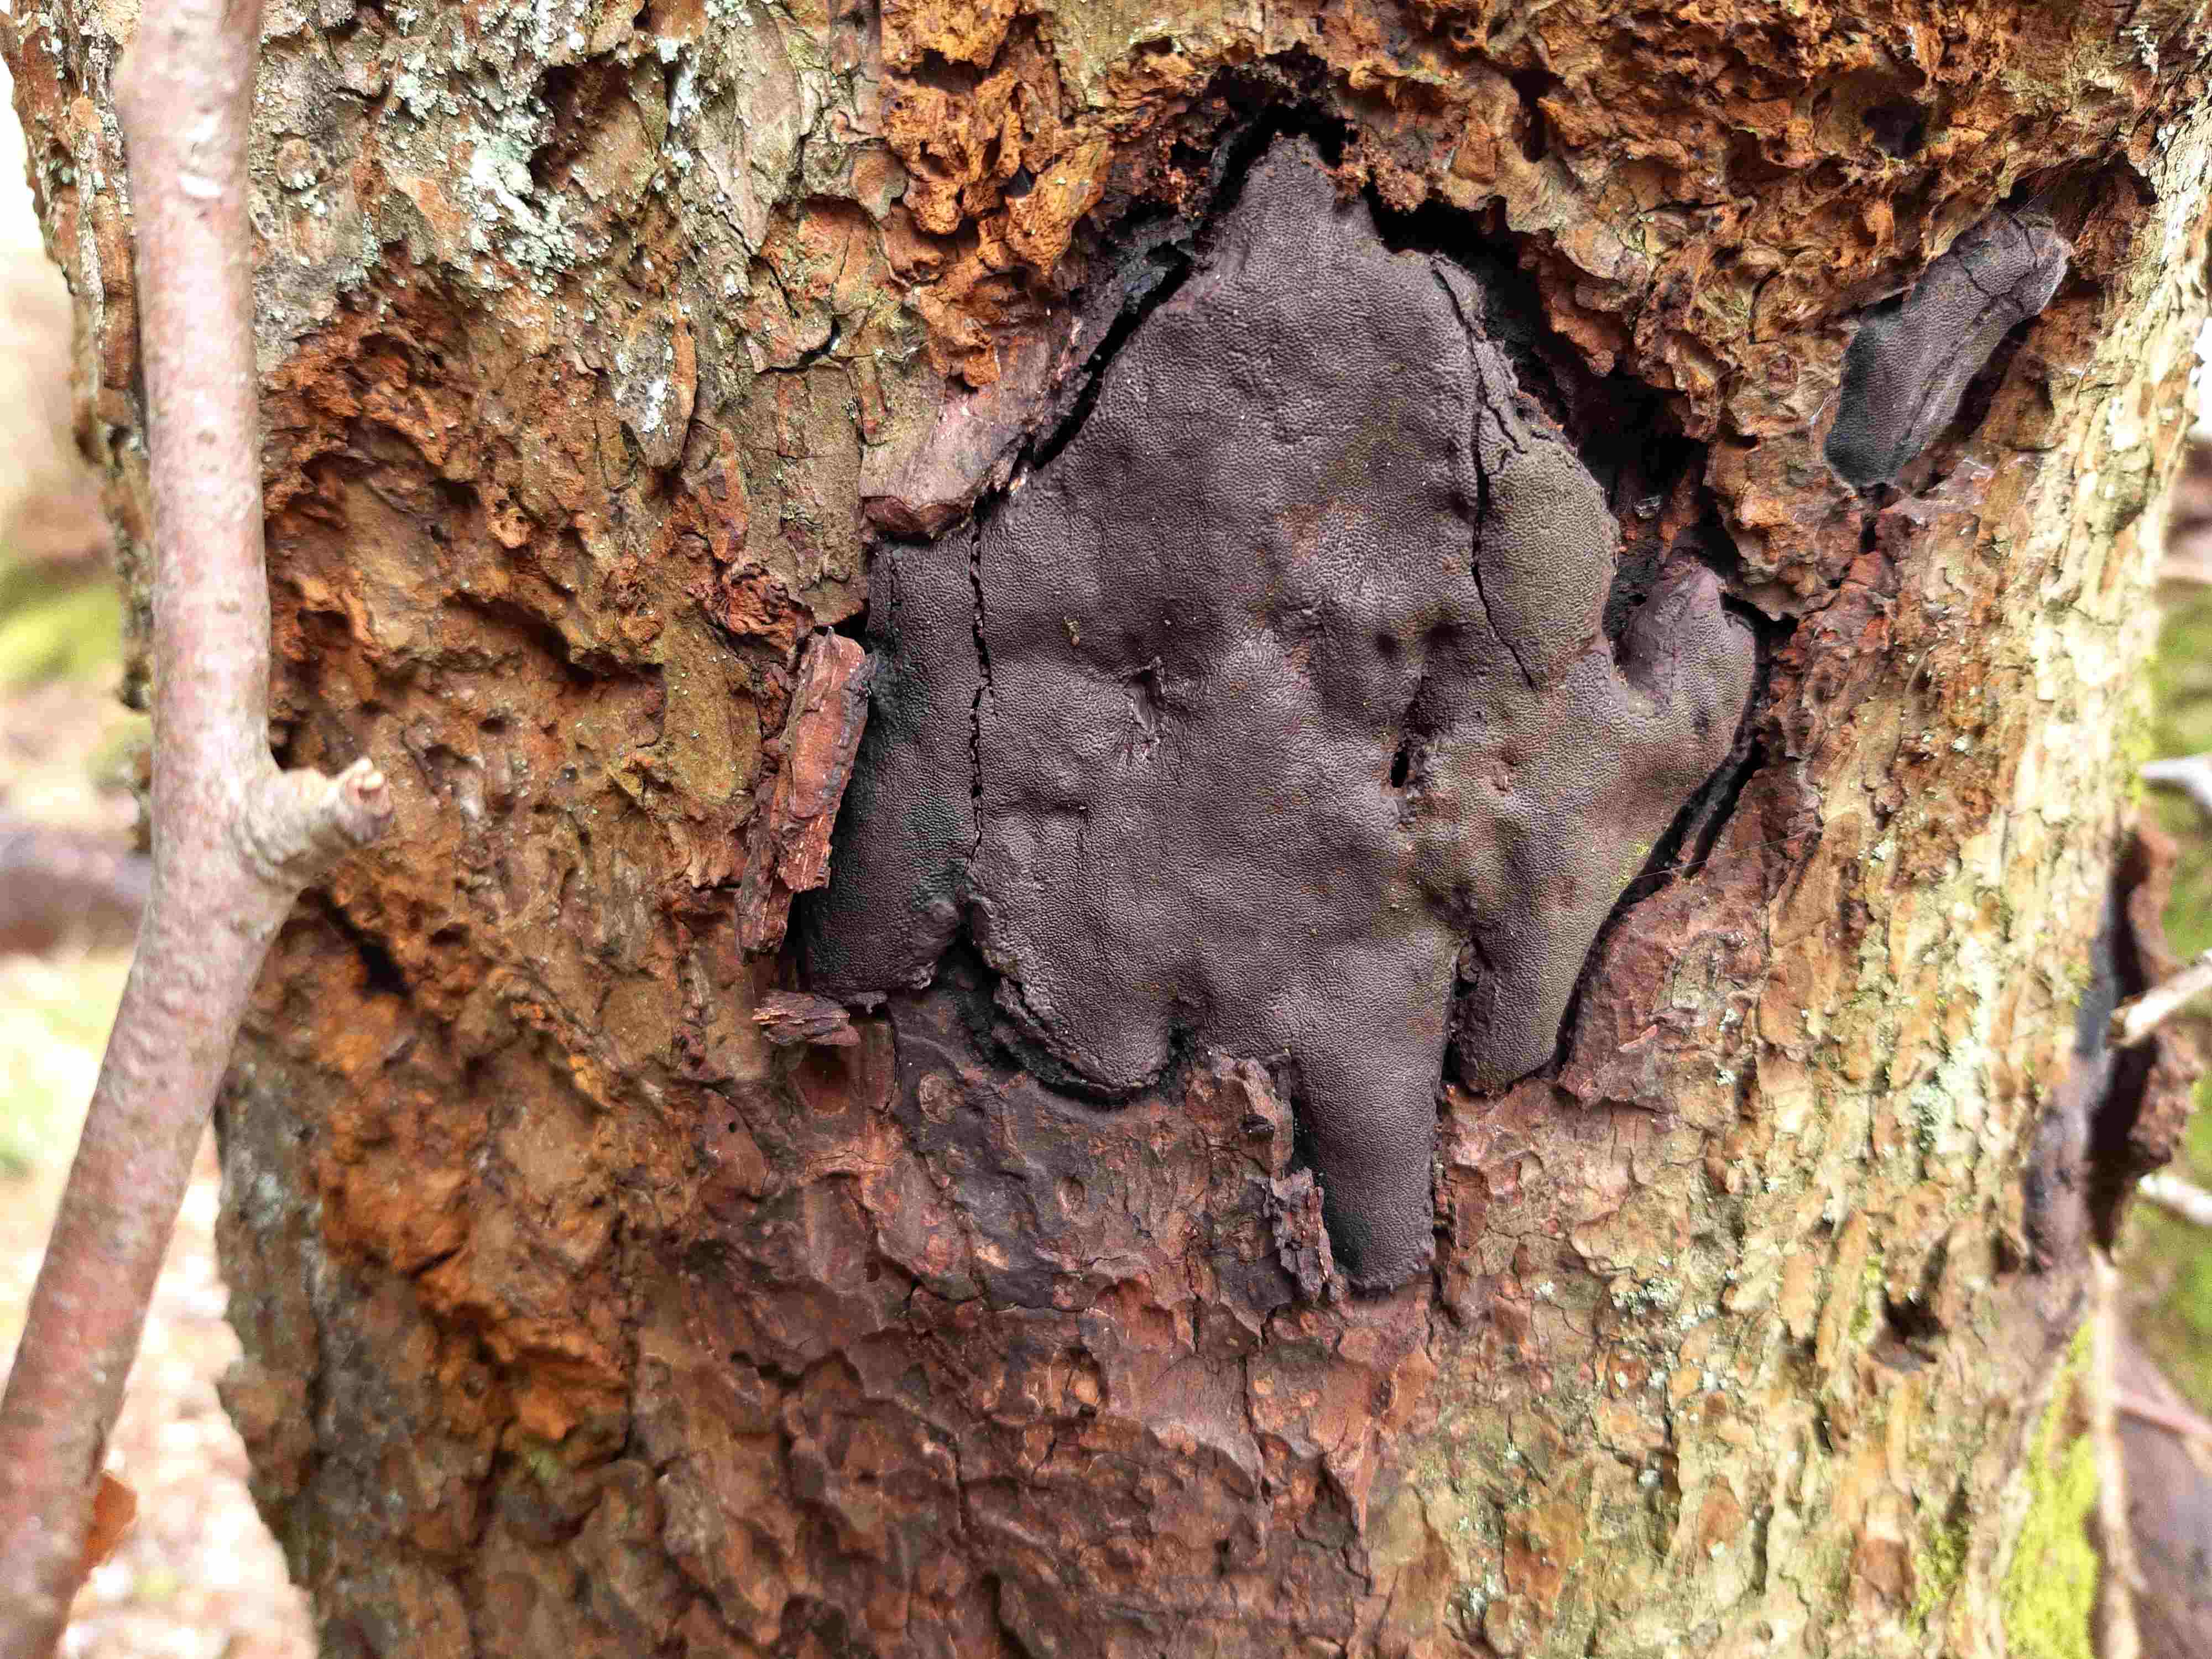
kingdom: Fungi
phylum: Ascomycota
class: Sordariomycetes
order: Boliniales
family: Boliniaceae
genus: Camarops
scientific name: Camarops polysperma
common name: elle-kulsnegl
